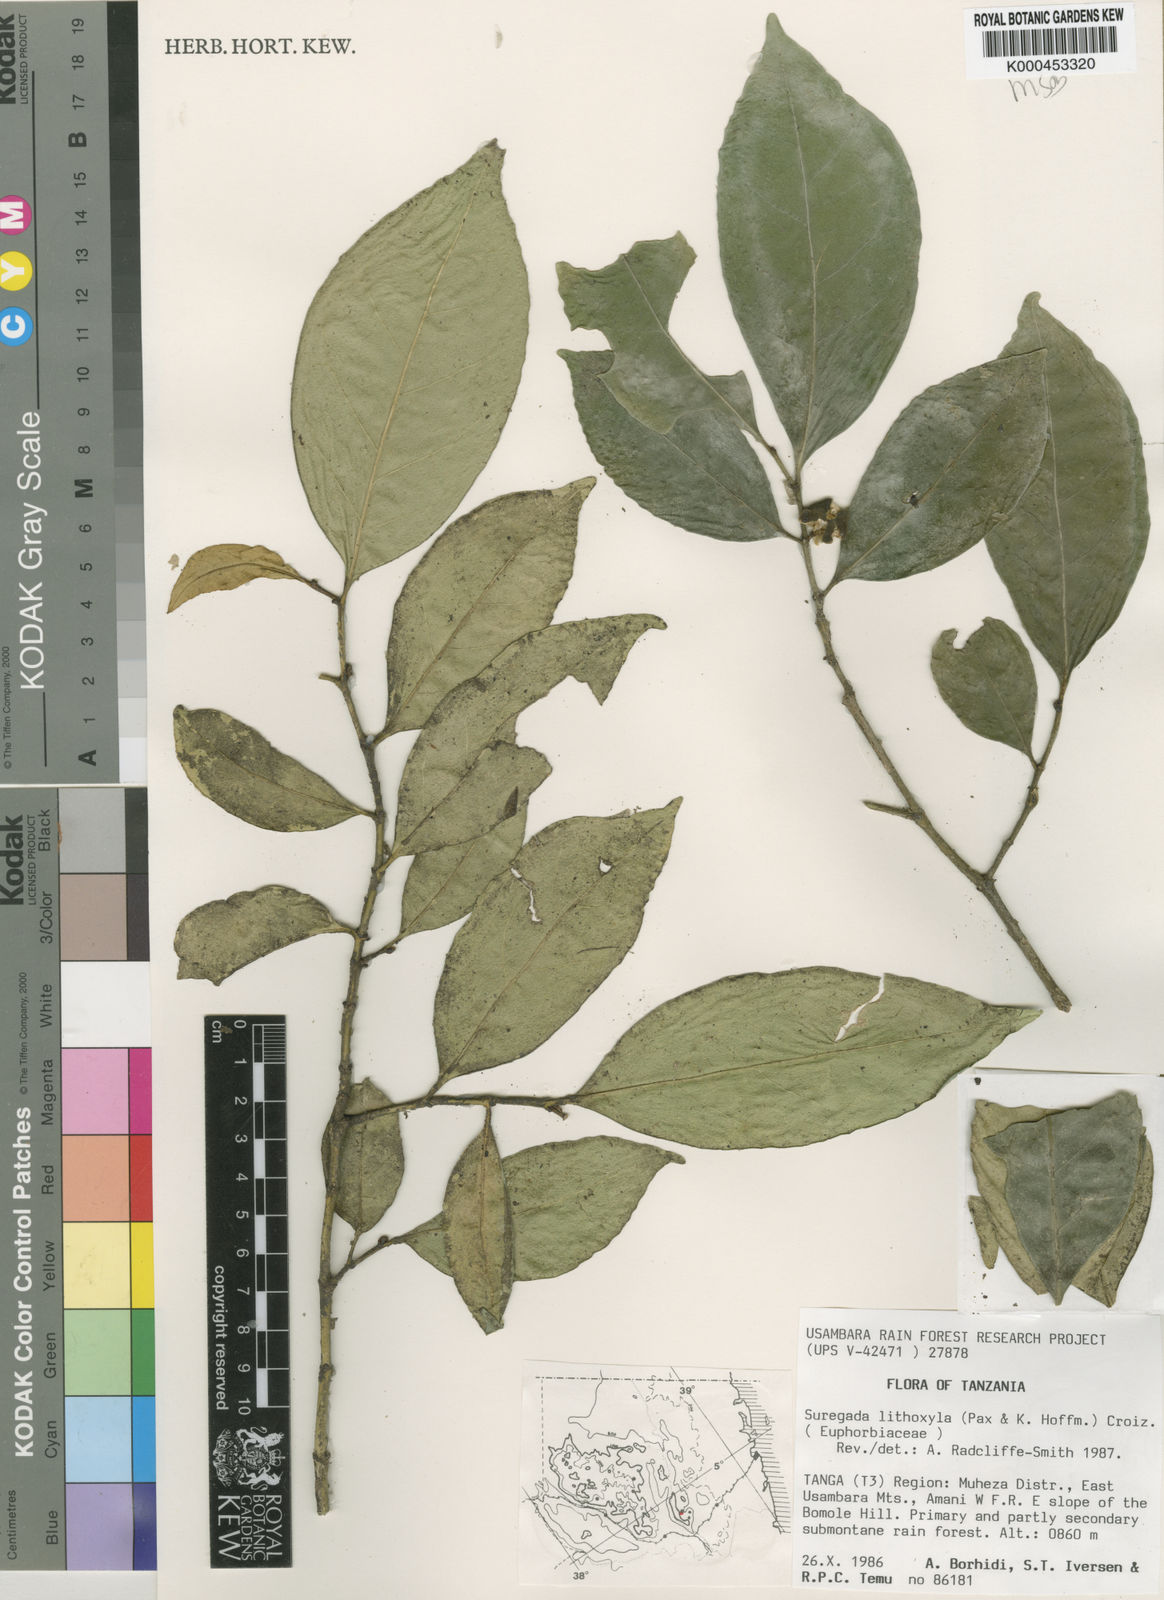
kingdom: Plantae
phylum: Tracheophyta
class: Magnoliopsida
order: Malpighiales
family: Euphorbiaceae
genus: Suregada
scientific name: Suregada lithoxyla
